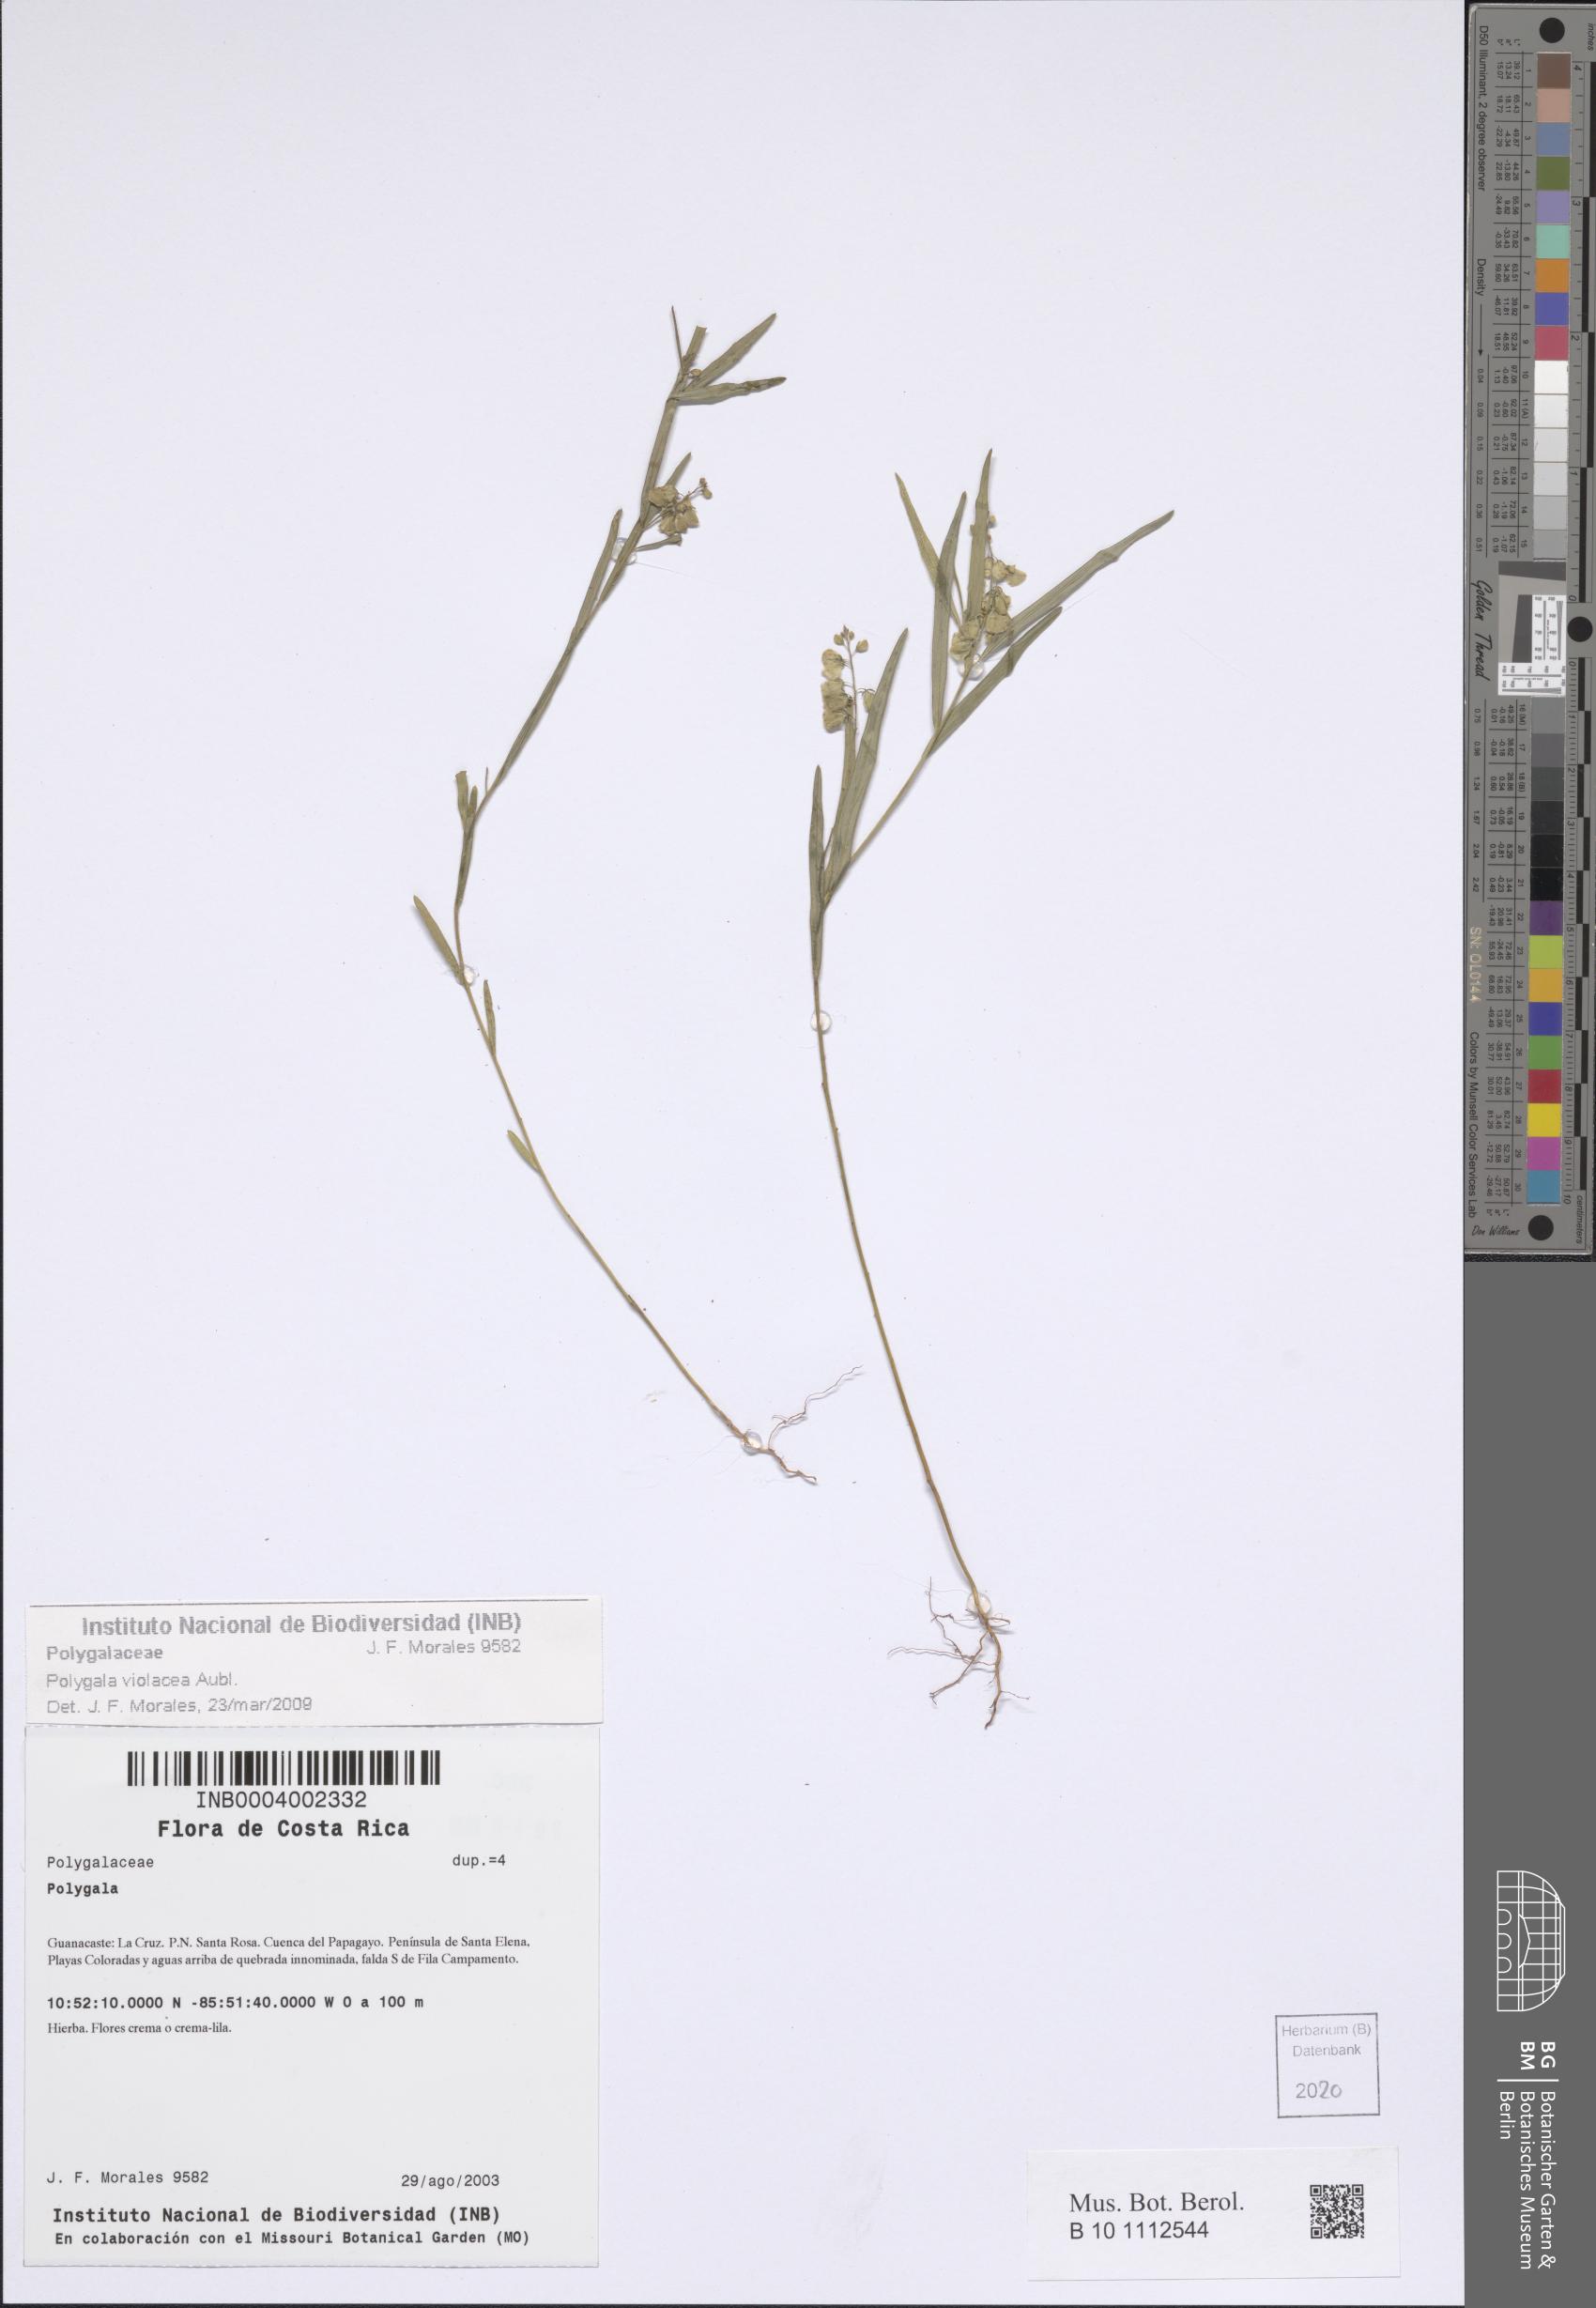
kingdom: Plantae
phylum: Tracheophyta
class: Magnoliopsida
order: Fabales
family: Polygalaceae
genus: Asemeia
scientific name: Asemeia violacea
